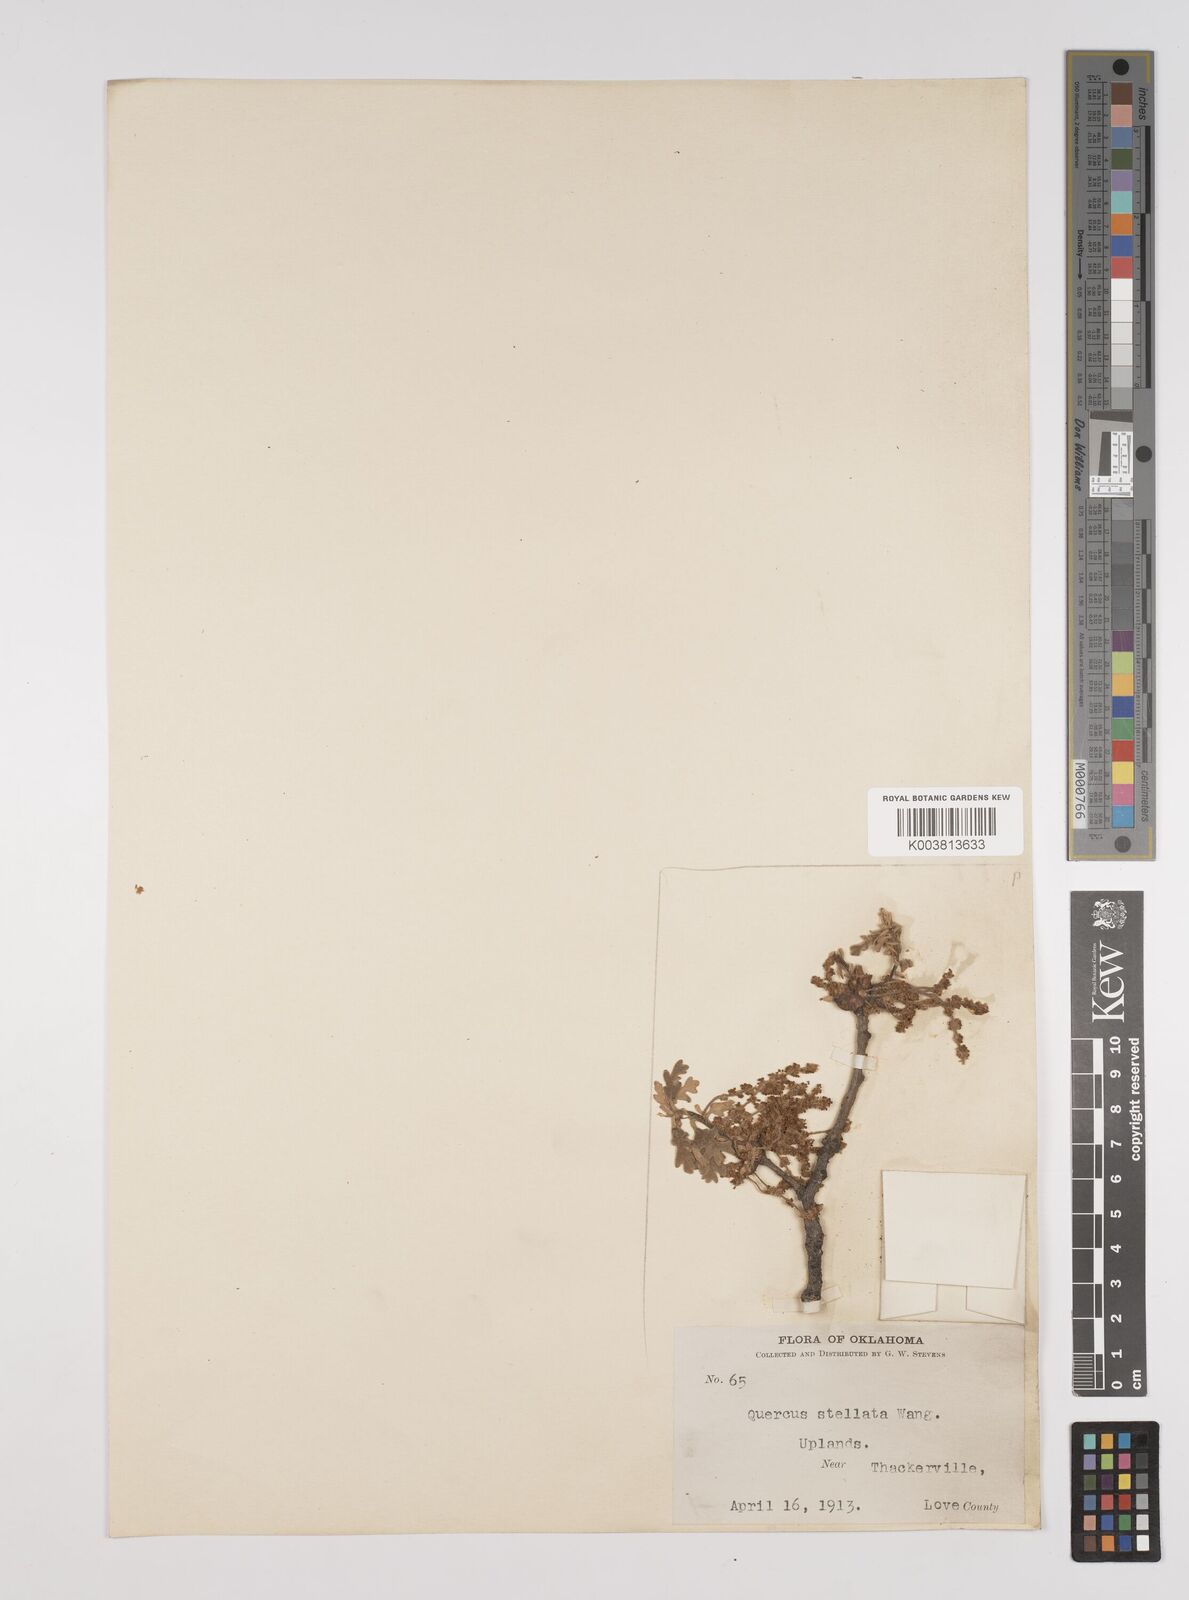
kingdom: Plantae
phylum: Tracheophyta
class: Magnoliopsida
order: Fagales
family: Fagaceae
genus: Quercus
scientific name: Quercus stellata
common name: Post oak
